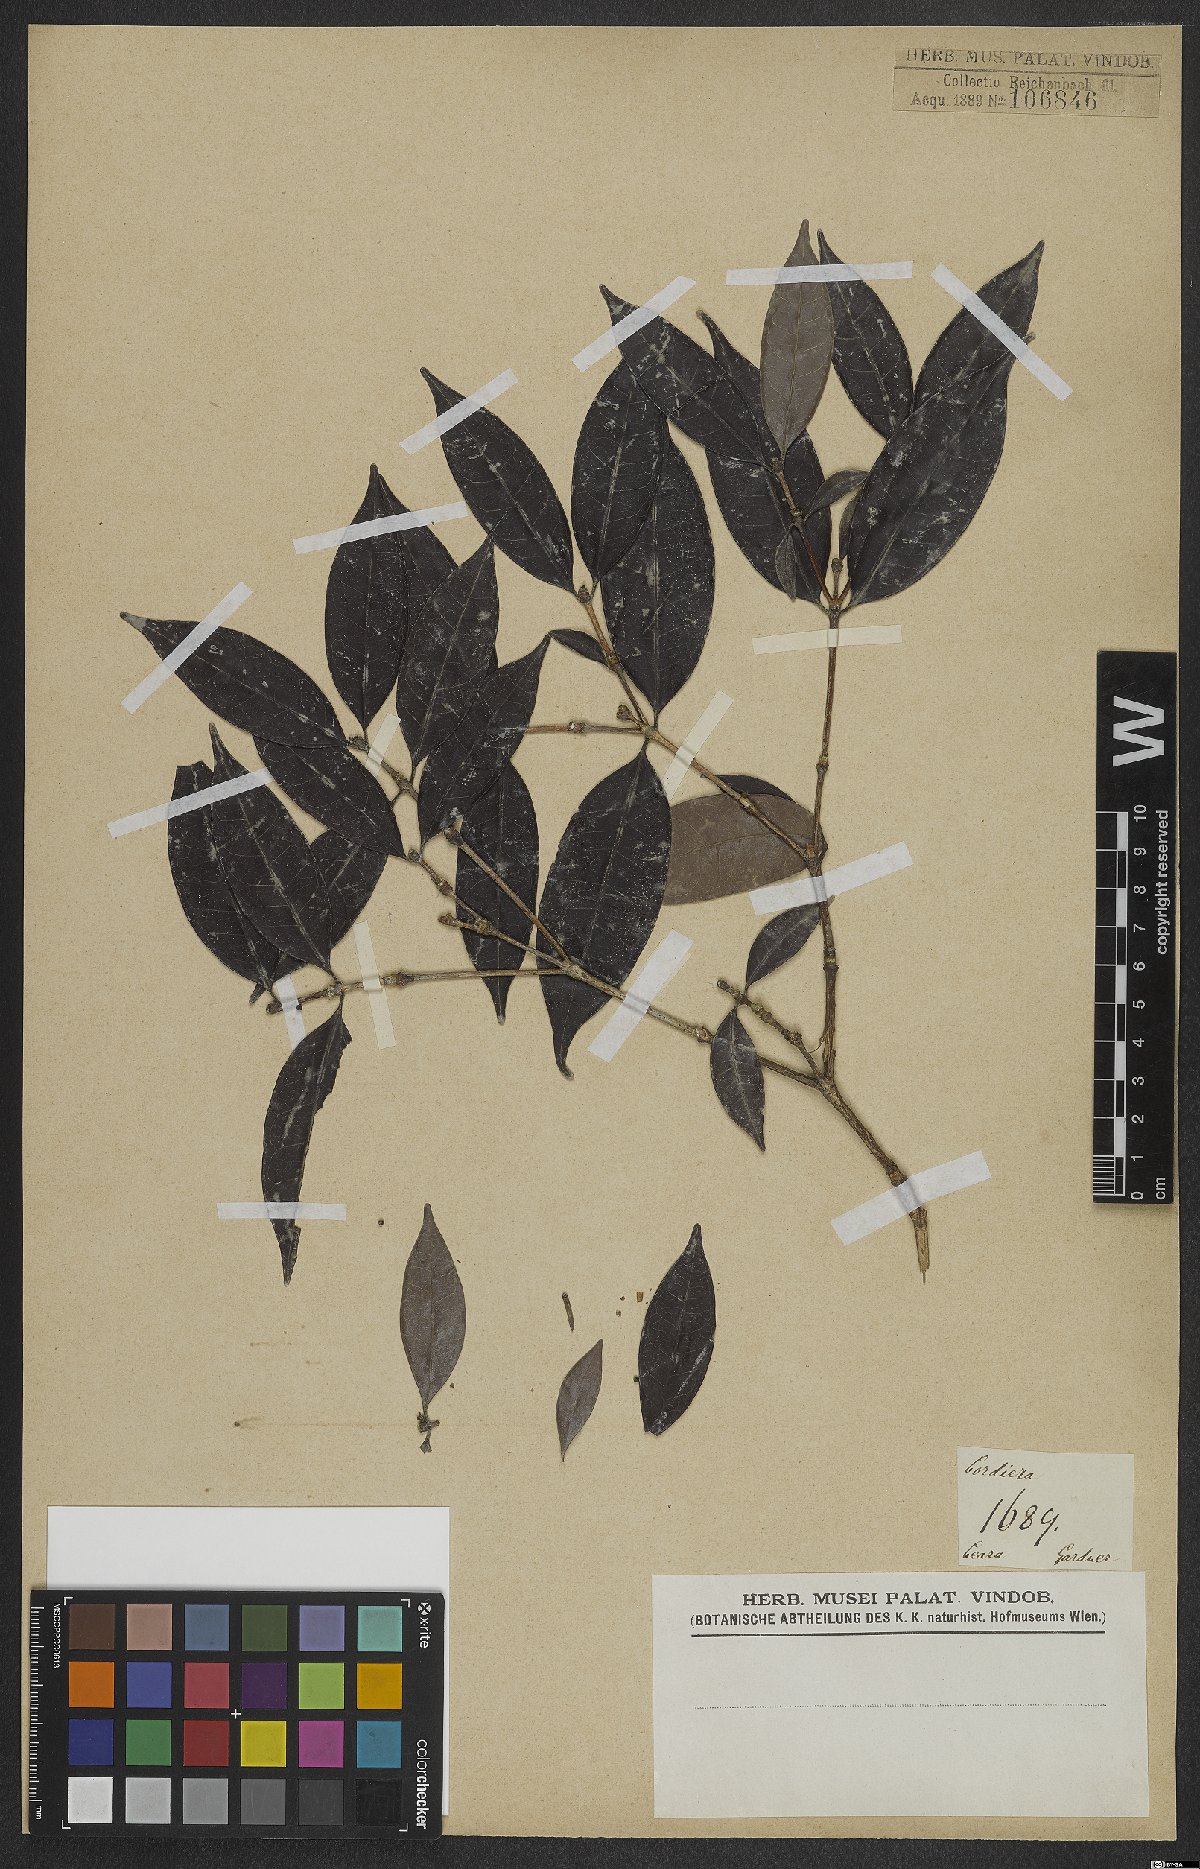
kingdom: Plantae
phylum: Tracheophyta
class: Magnoliopsida
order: Gentianales
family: Rubiaceae
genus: Cordiera
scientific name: Cordiera
